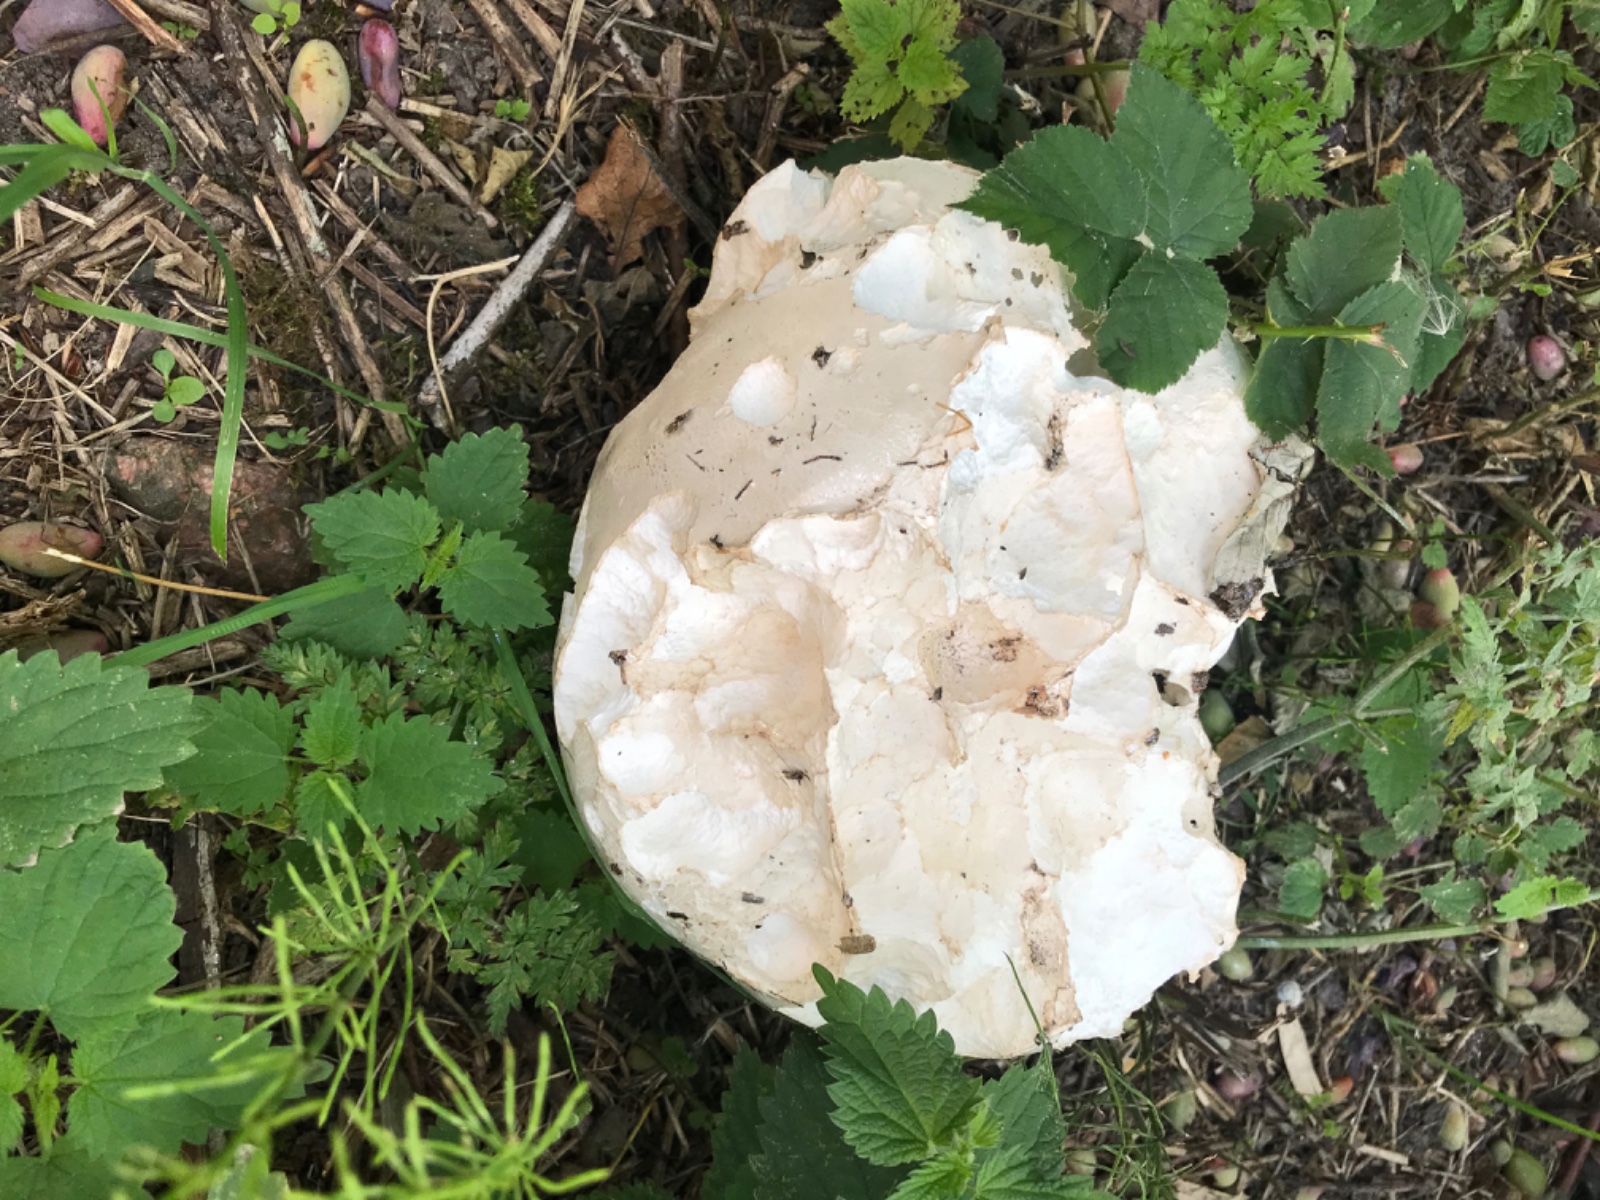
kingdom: Fungi
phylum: Basidiomycota
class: Agaricomycetes
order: Agaricales
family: Lycoperdaceae
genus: Calvatia
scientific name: Calvatia gigantea
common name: kæmpestøvbold
